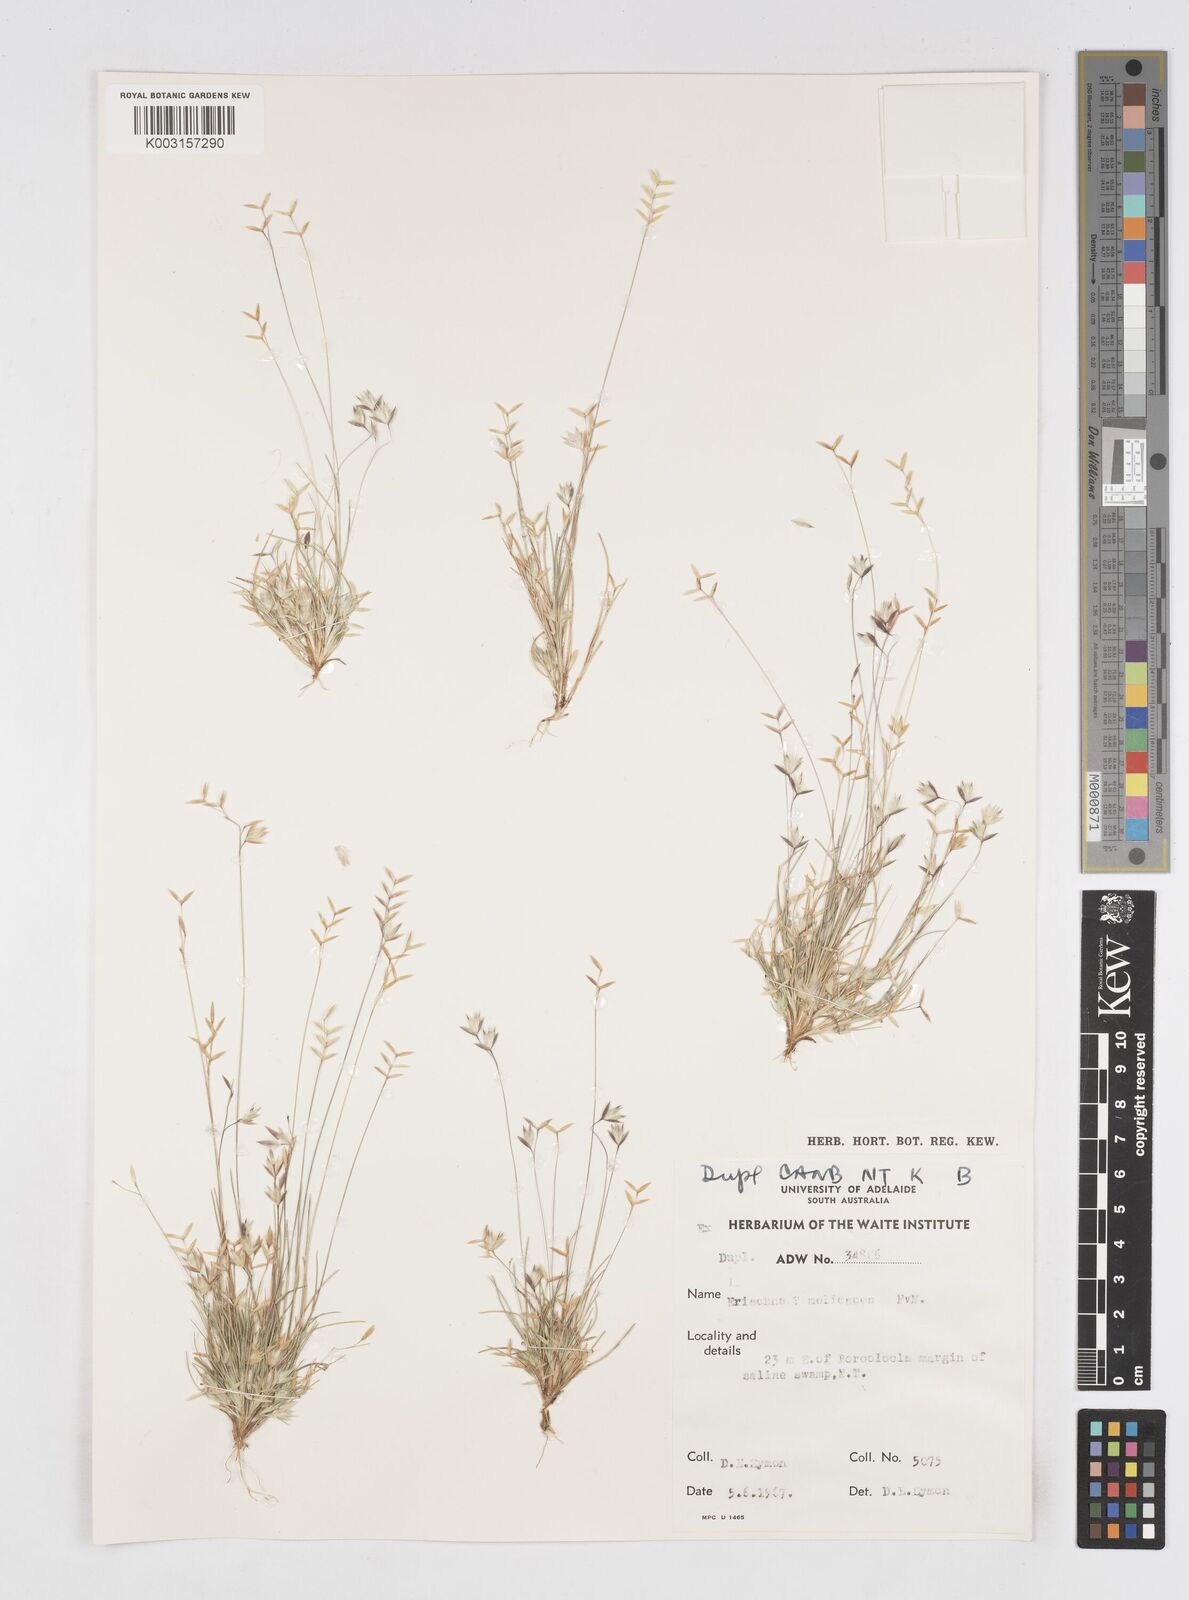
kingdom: Plantae
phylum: Tracheophyta
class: Liliopsida
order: Poales
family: Poaceae
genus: Eriachne
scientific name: Eriachne melicacea
